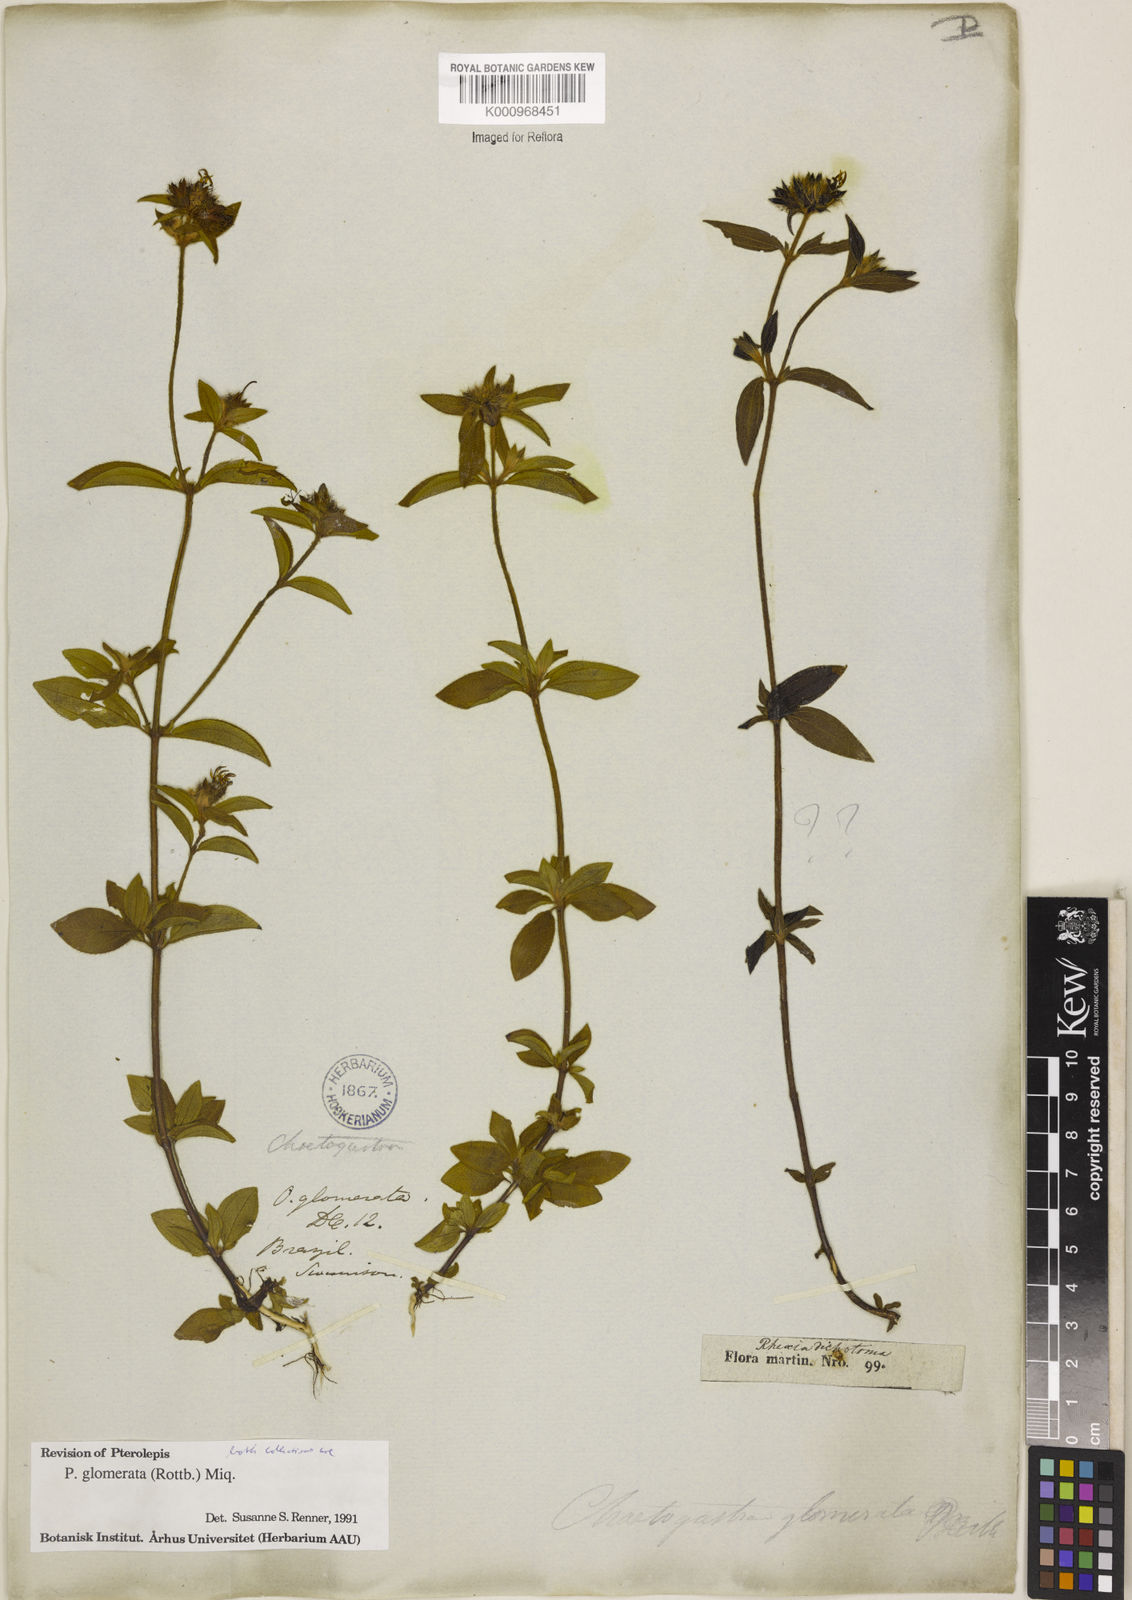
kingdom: Plantae
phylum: Tracheophyta
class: Magnoliopsida
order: Myrtales
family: Melastomataceae
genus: Pterolepis
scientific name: Pterolepis glomerata
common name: False meadowbeauty
